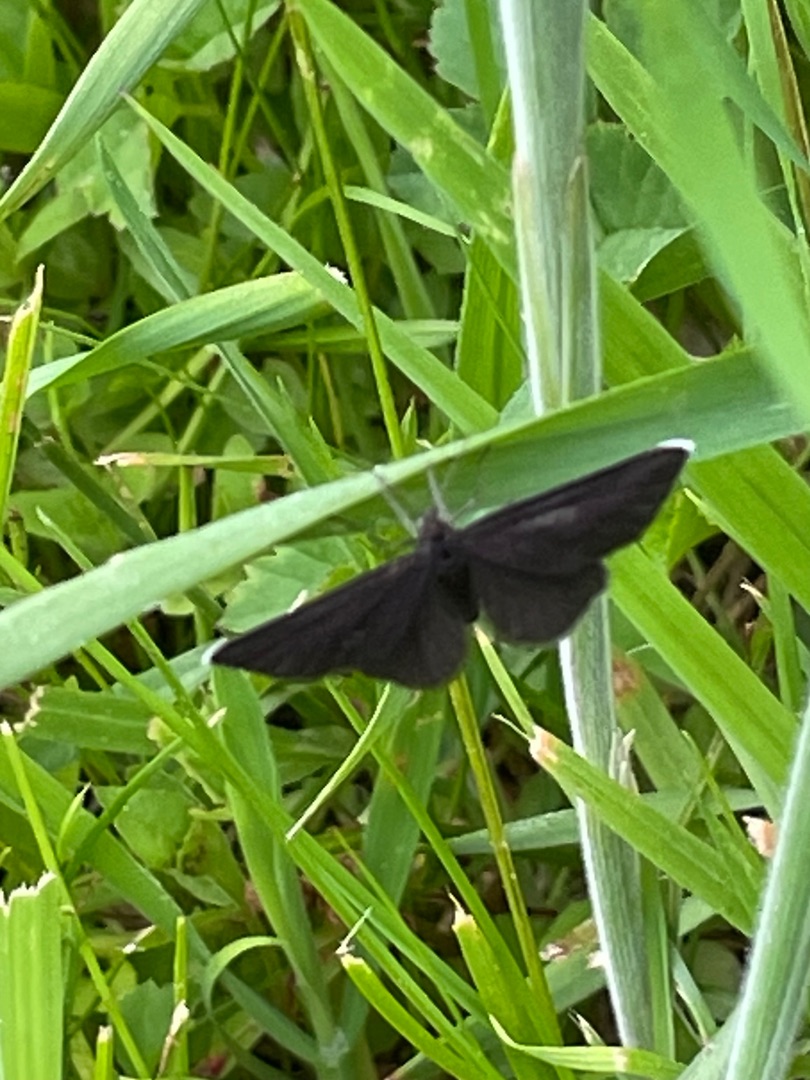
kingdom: Animalia
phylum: Arthropoda
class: Insecta
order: Lepidoptera
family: Geometridae
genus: Odezia
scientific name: Odezia atrata
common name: Sort måler
